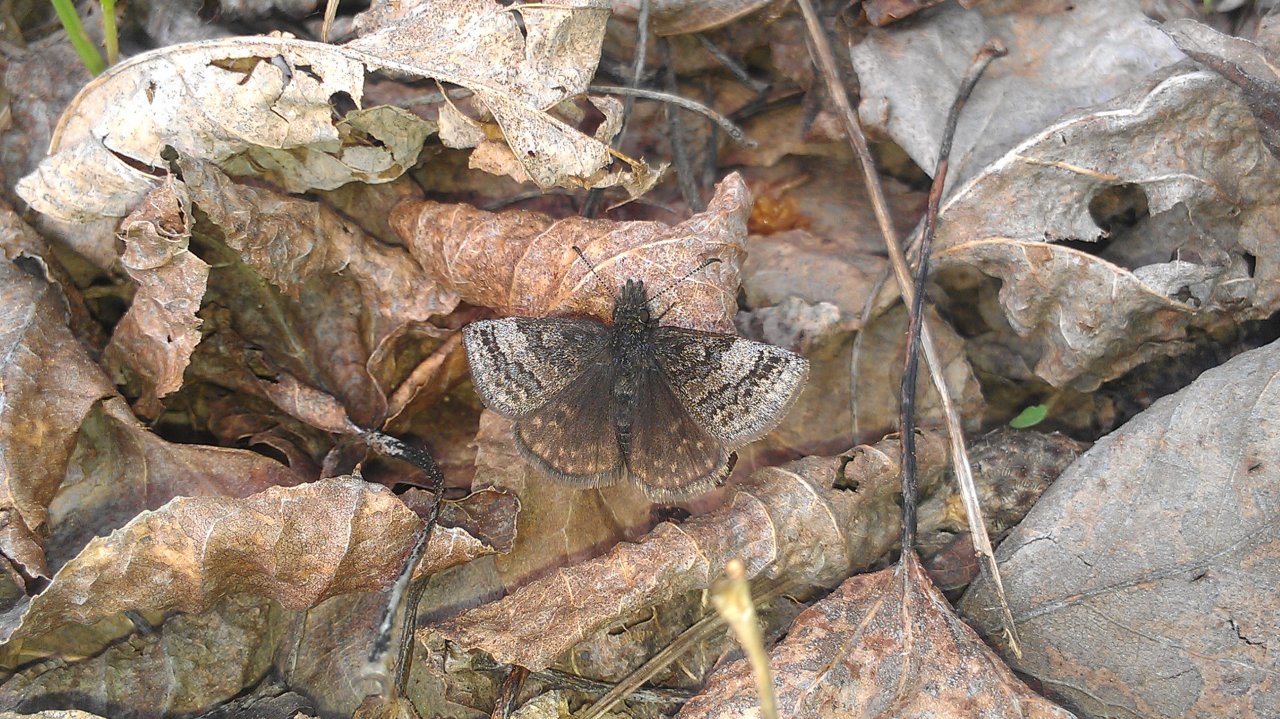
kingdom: Animalia
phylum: Arthropoda
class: Insecta
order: Lepidoptera
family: Hesperiidae
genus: Erynnis
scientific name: Erynnis icelus
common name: Dreamy Duskywing
